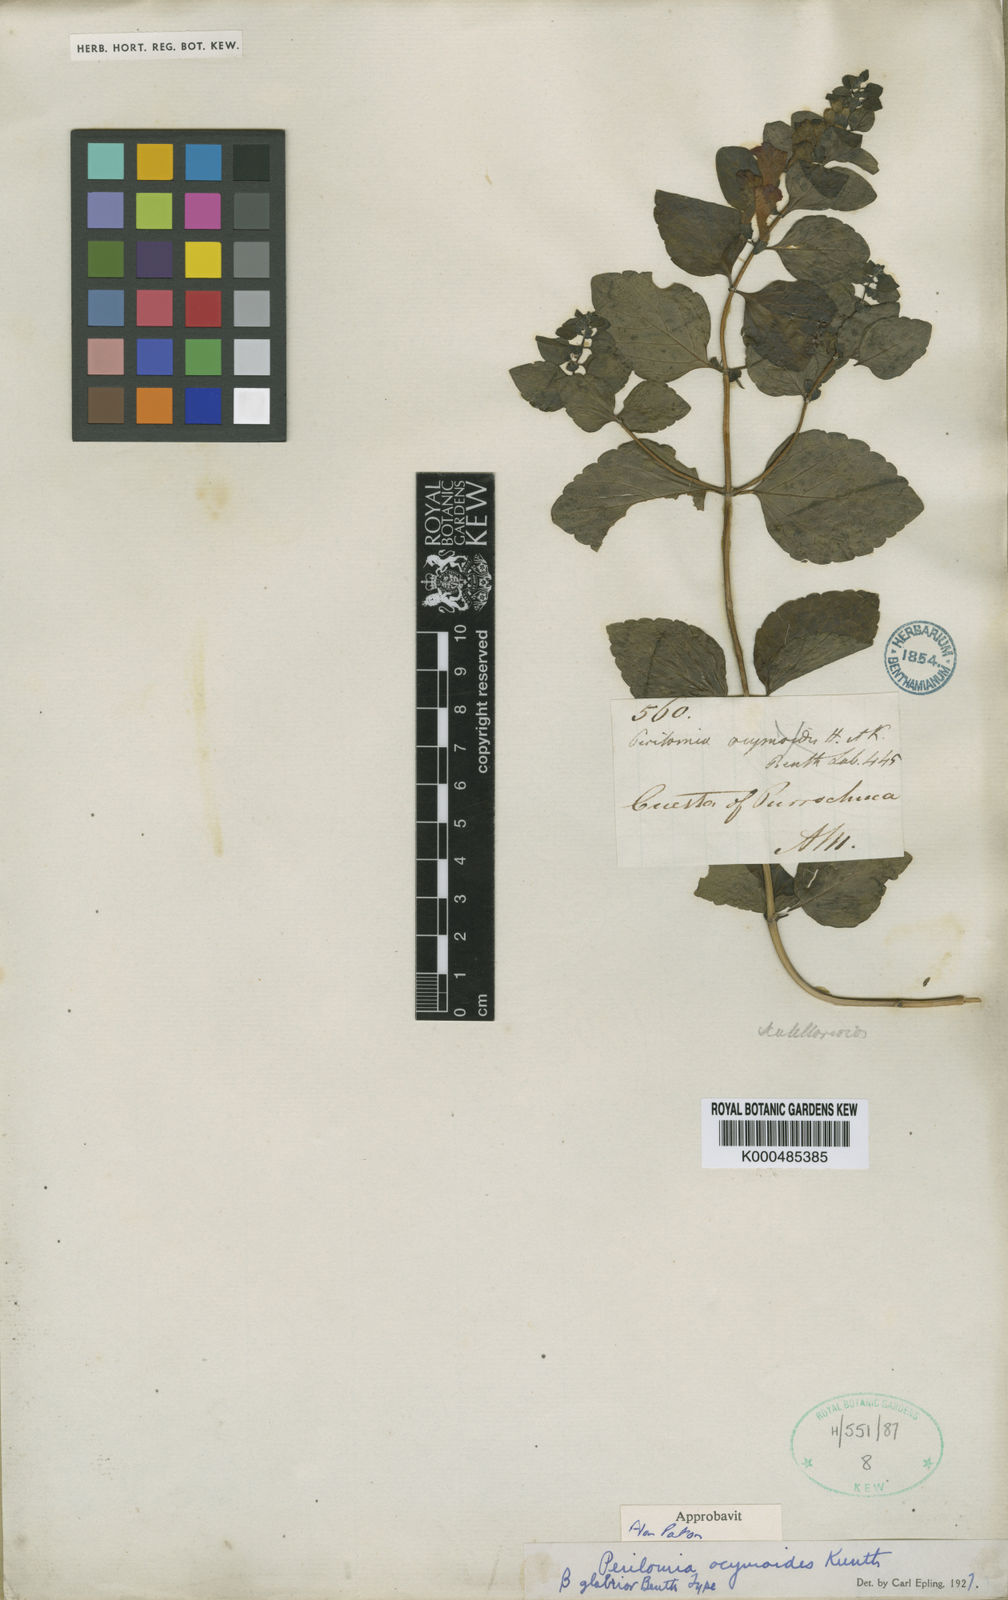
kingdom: Plantae
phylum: Tracheophyta
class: Magnoliopsida
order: Lamiales
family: Lamiaceae
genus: Scutellaria
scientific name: Scutellaria ocymoides
